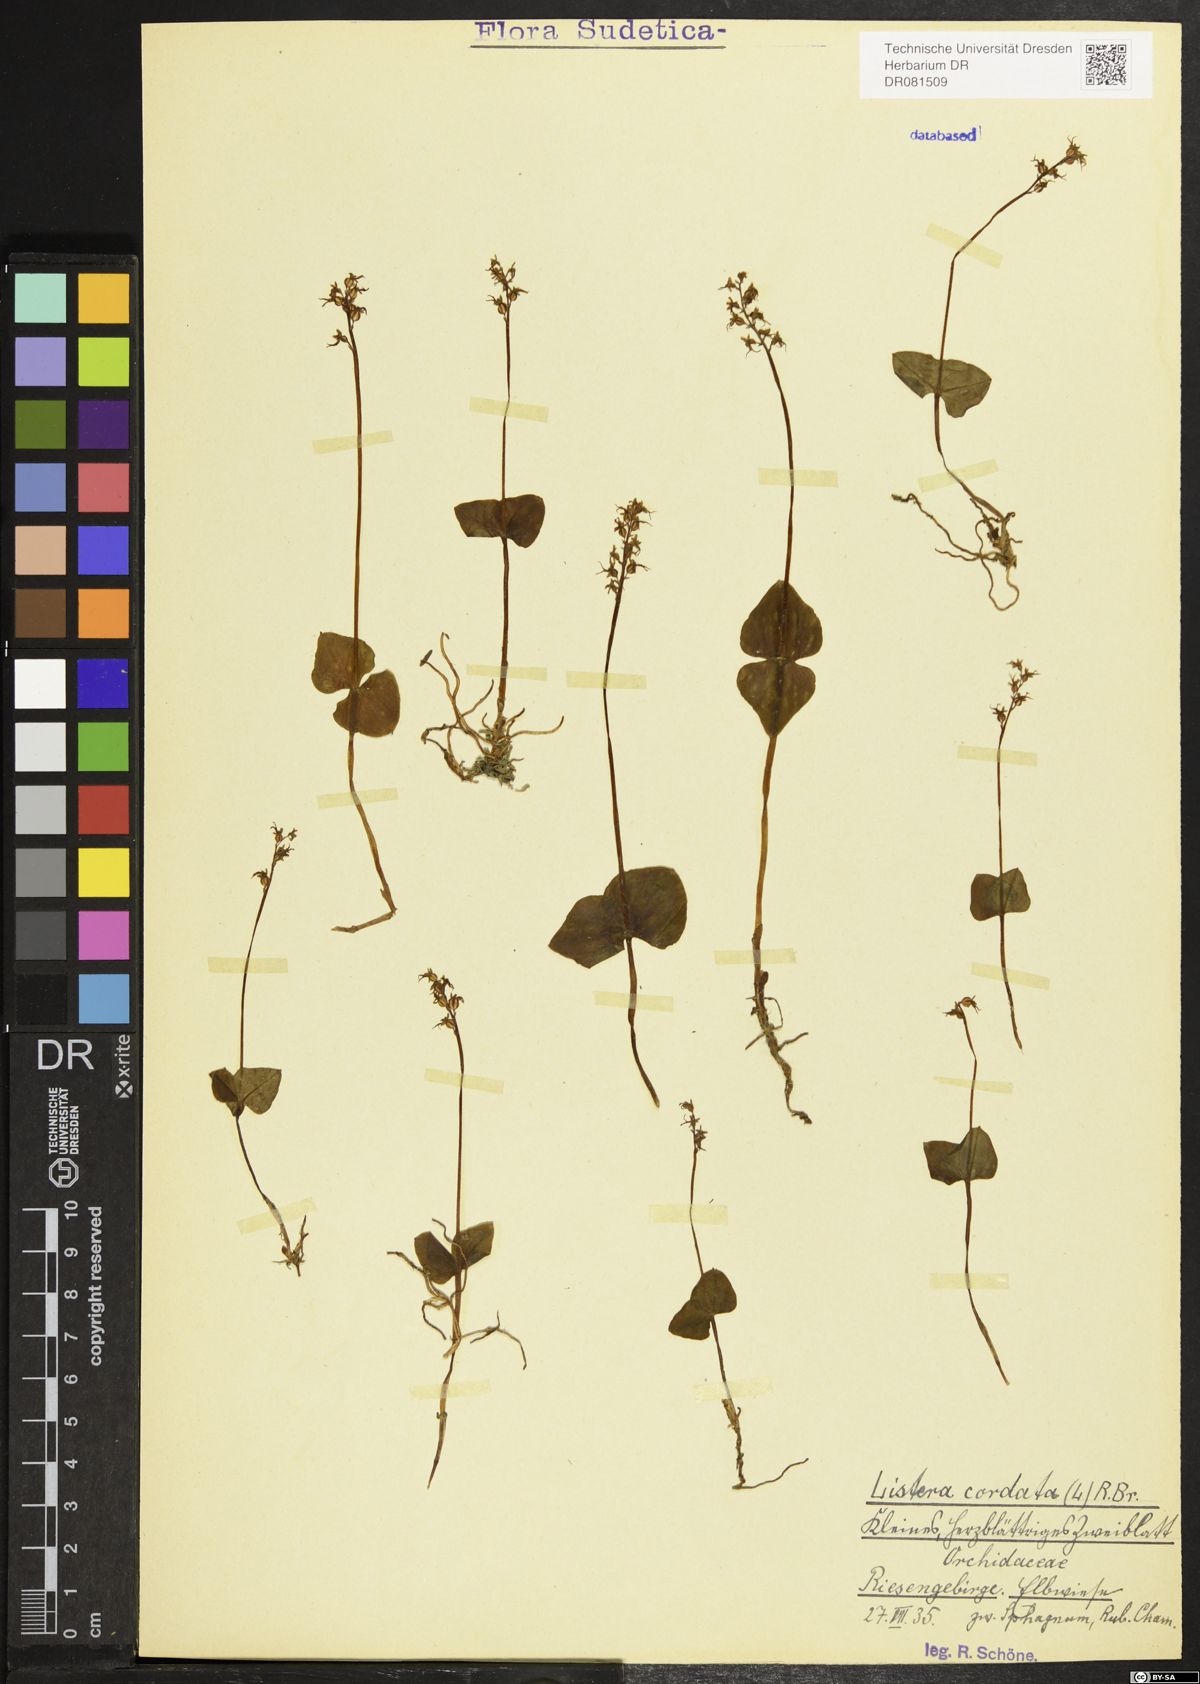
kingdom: Plantae
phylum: Tracheophyta
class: Liliopsida
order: Asparagales
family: Orchidaceae
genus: Neottia
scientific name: Neottia cordata
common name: Lesser twayblade
